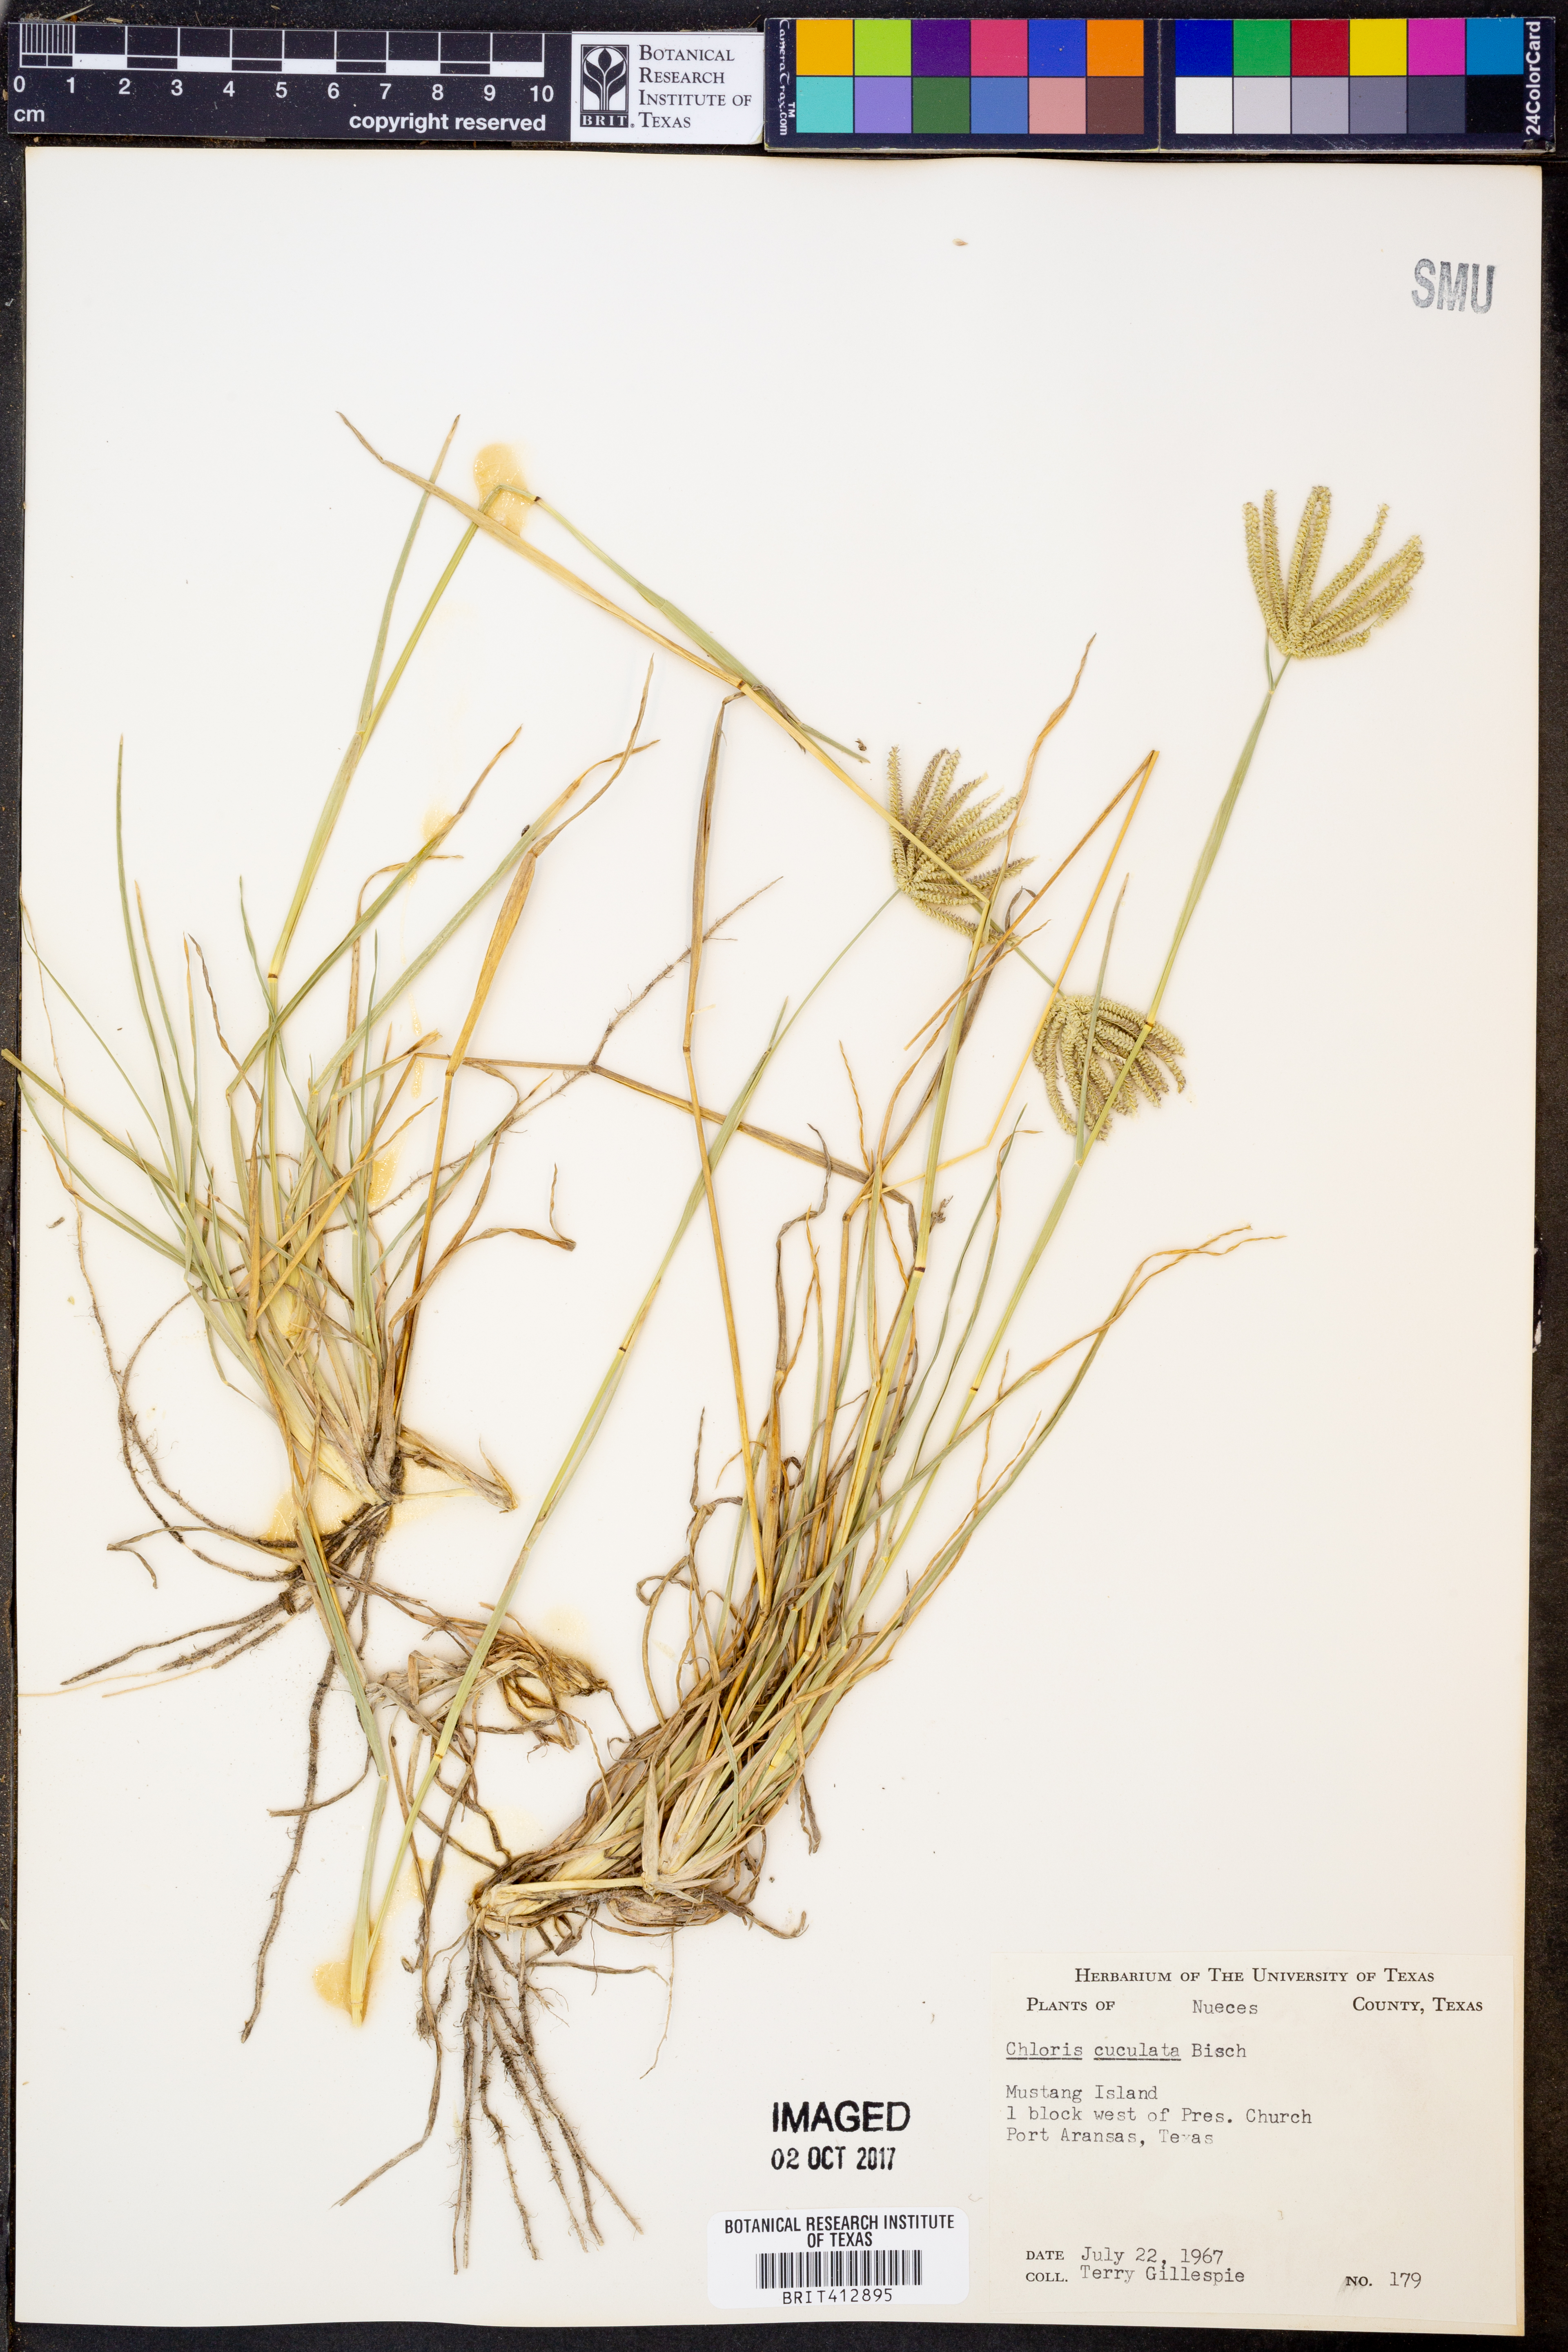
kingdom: Plantae
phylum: Tracheophyta
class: Liliopsida
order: Poales
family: Poaceae
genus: Chloris
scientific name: Chloris cucullata
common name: Hooded windmill grass
